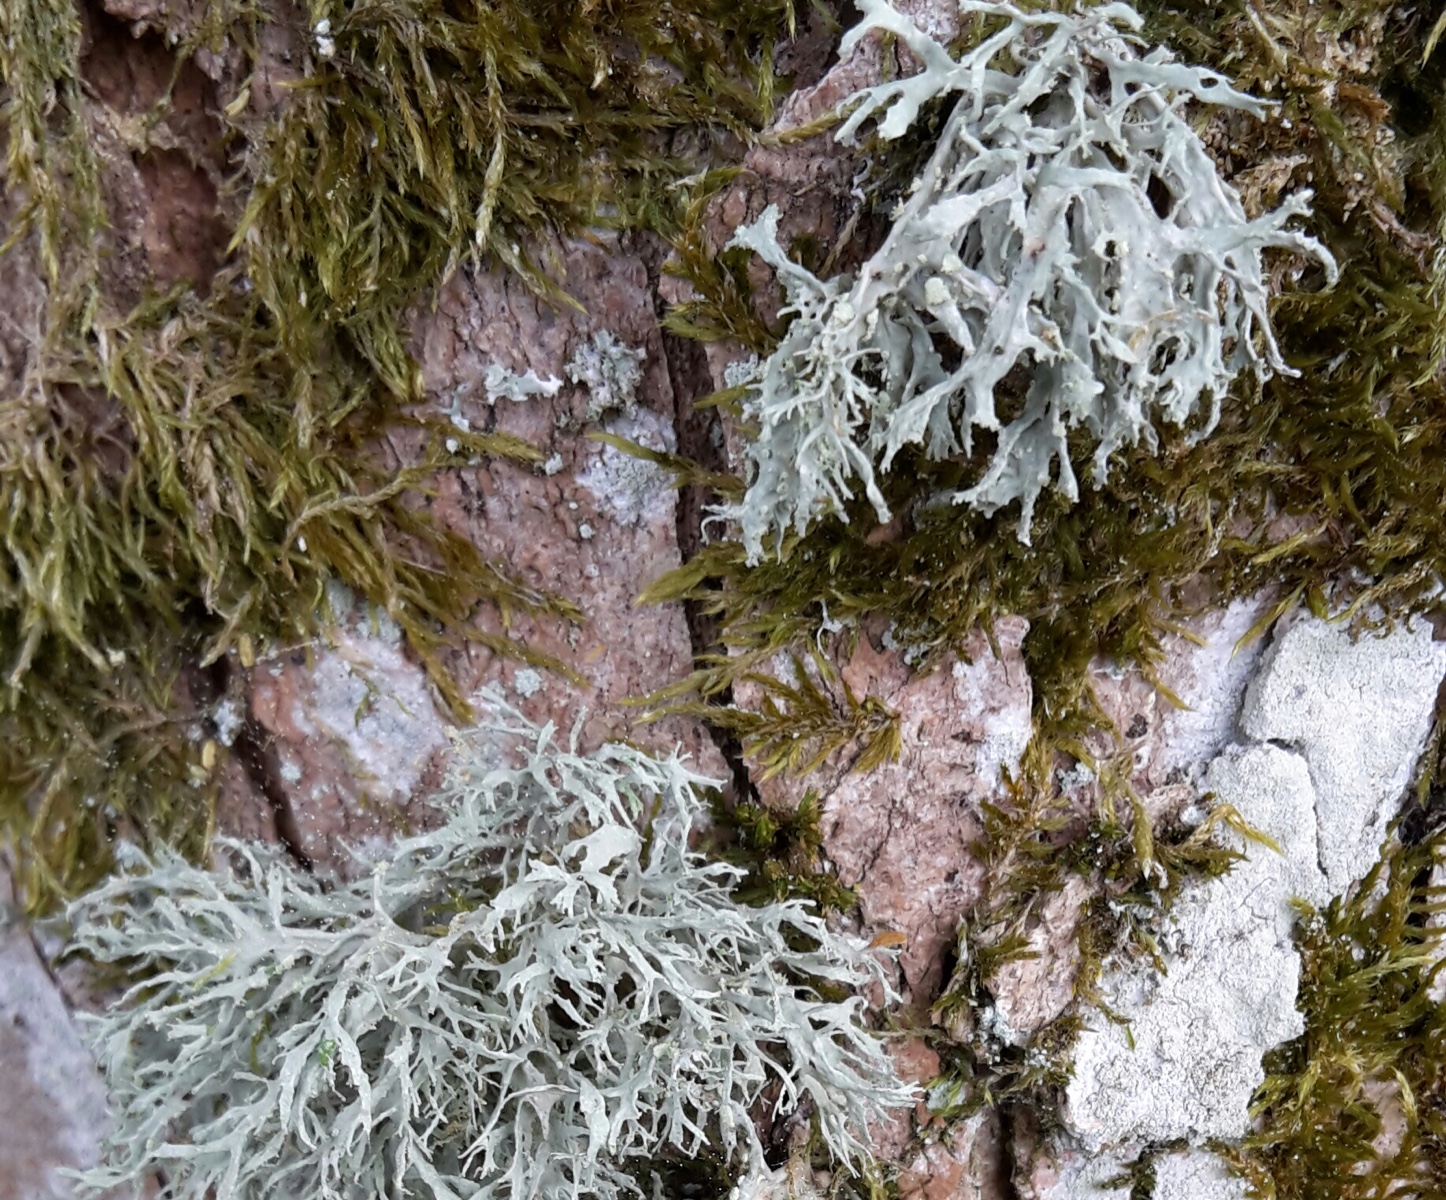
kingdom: Fungi
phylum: Ascomycota
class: Lecanoromycetes
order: Lecanorales
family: Ramalinaceae
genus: Ramalina
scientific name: Ramalina farinacea
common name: melet grenlav
